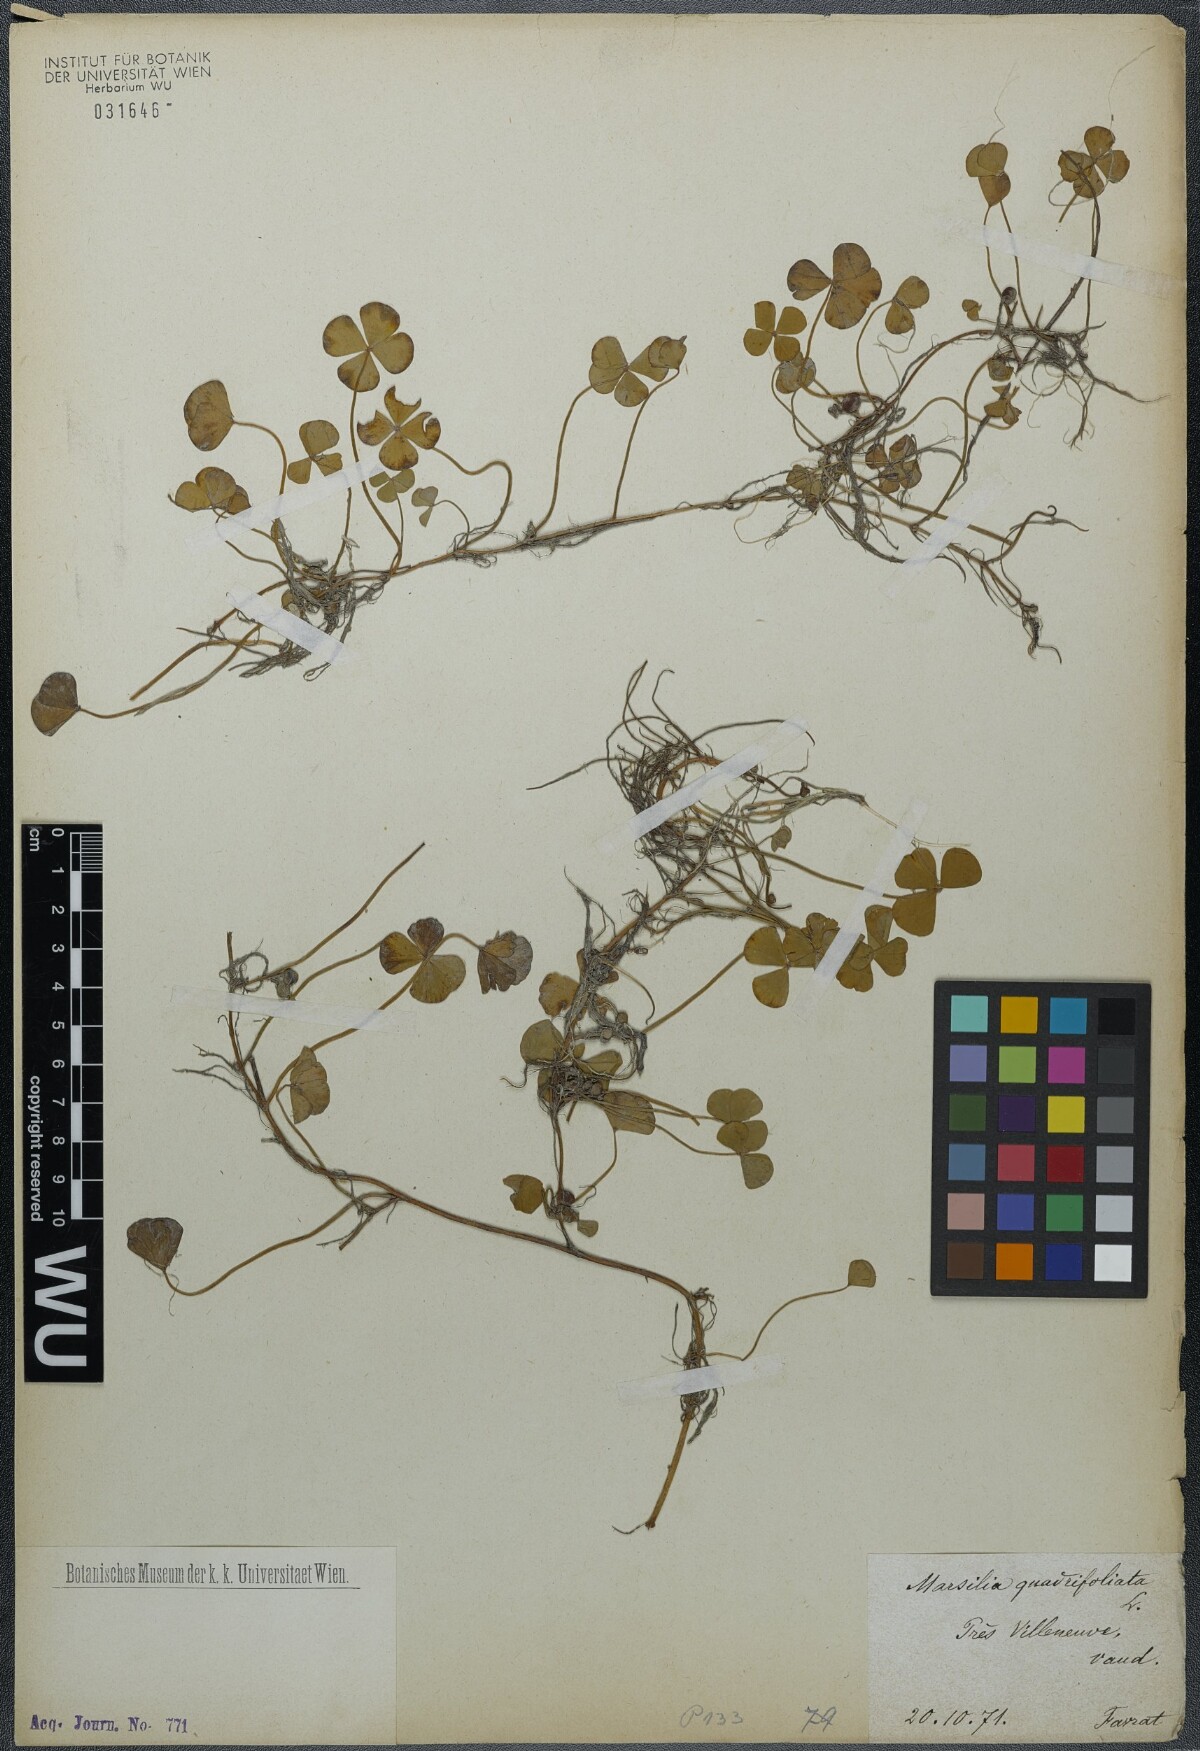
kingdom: Plantae
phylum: Tracheophyta
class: Polypodiopsida
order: Salviniales
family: Marsileaceae
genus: Marsilea
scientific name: Marsilea quadrifolia
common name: Water shamrock
